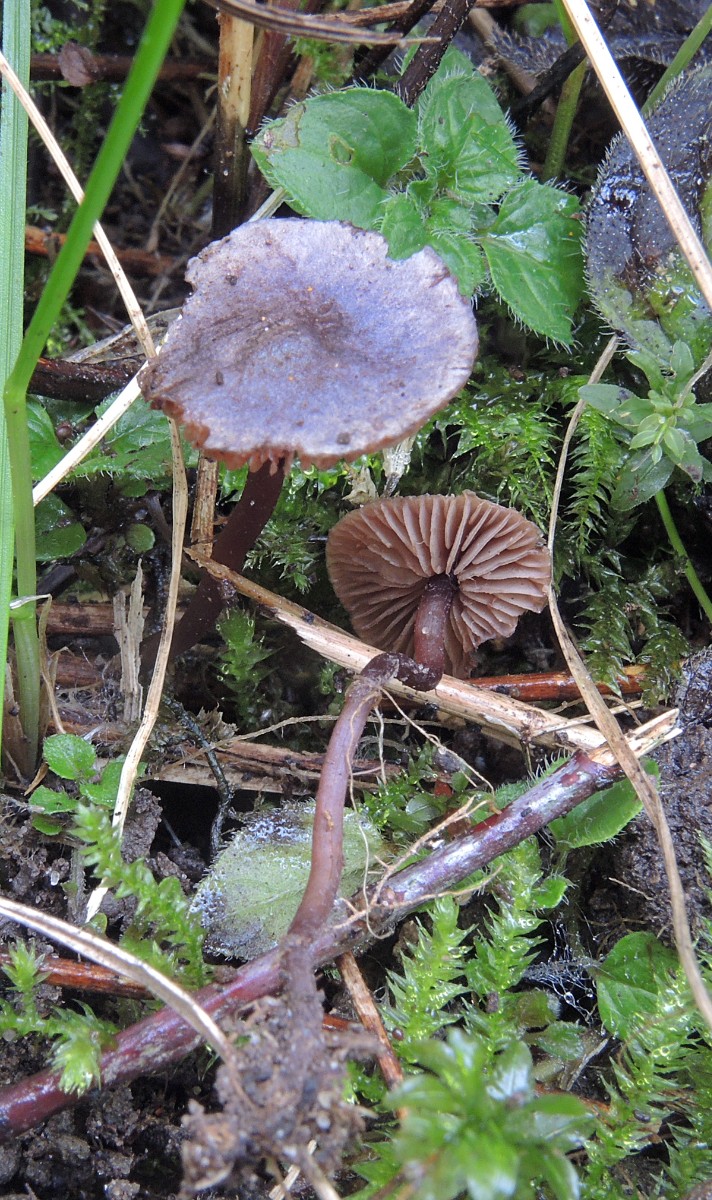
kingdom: Fungi
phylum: Basidiomycota
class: Agaricomycetes
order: Agaricales
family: Tricholomataceae
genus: Pseudobaeospora
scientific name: Pseudobaeospora pyrifera
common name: stor røghat
